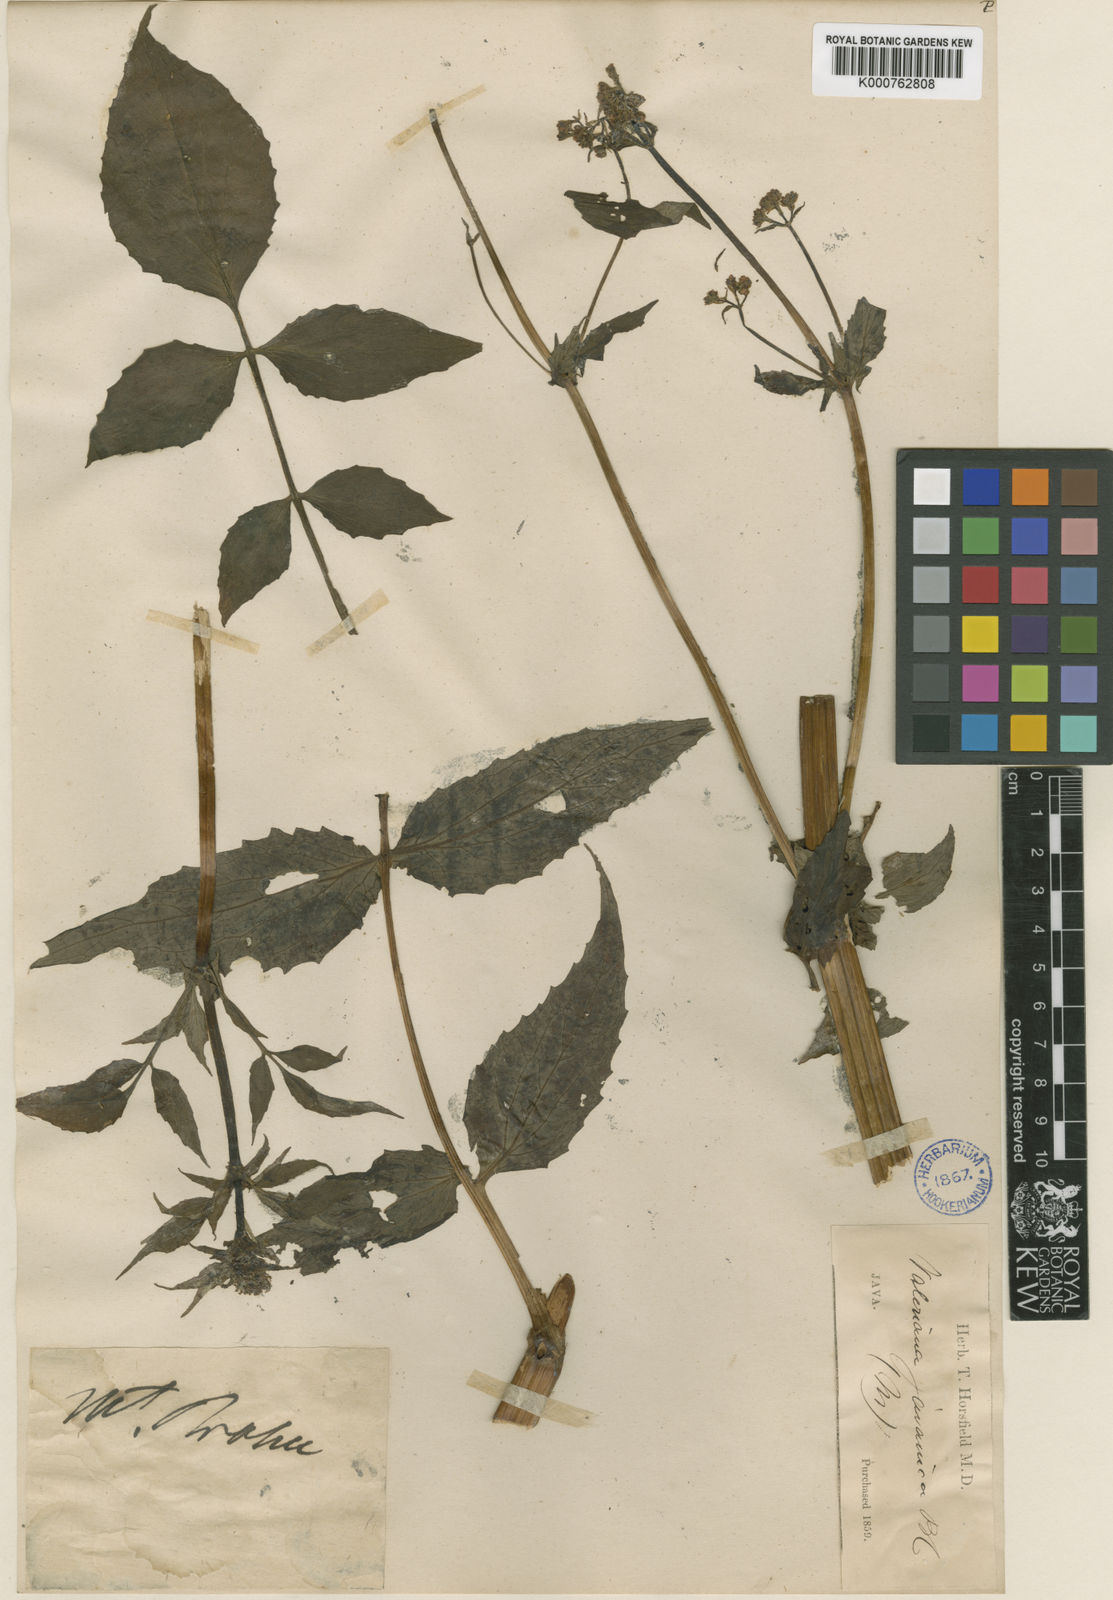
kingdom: Plantae
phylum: Tracheophyta
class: Magnoliopsida
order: Dipsacales
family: Caprifoliaceae
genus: Valeriana
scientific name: Valeriana hardwickei
